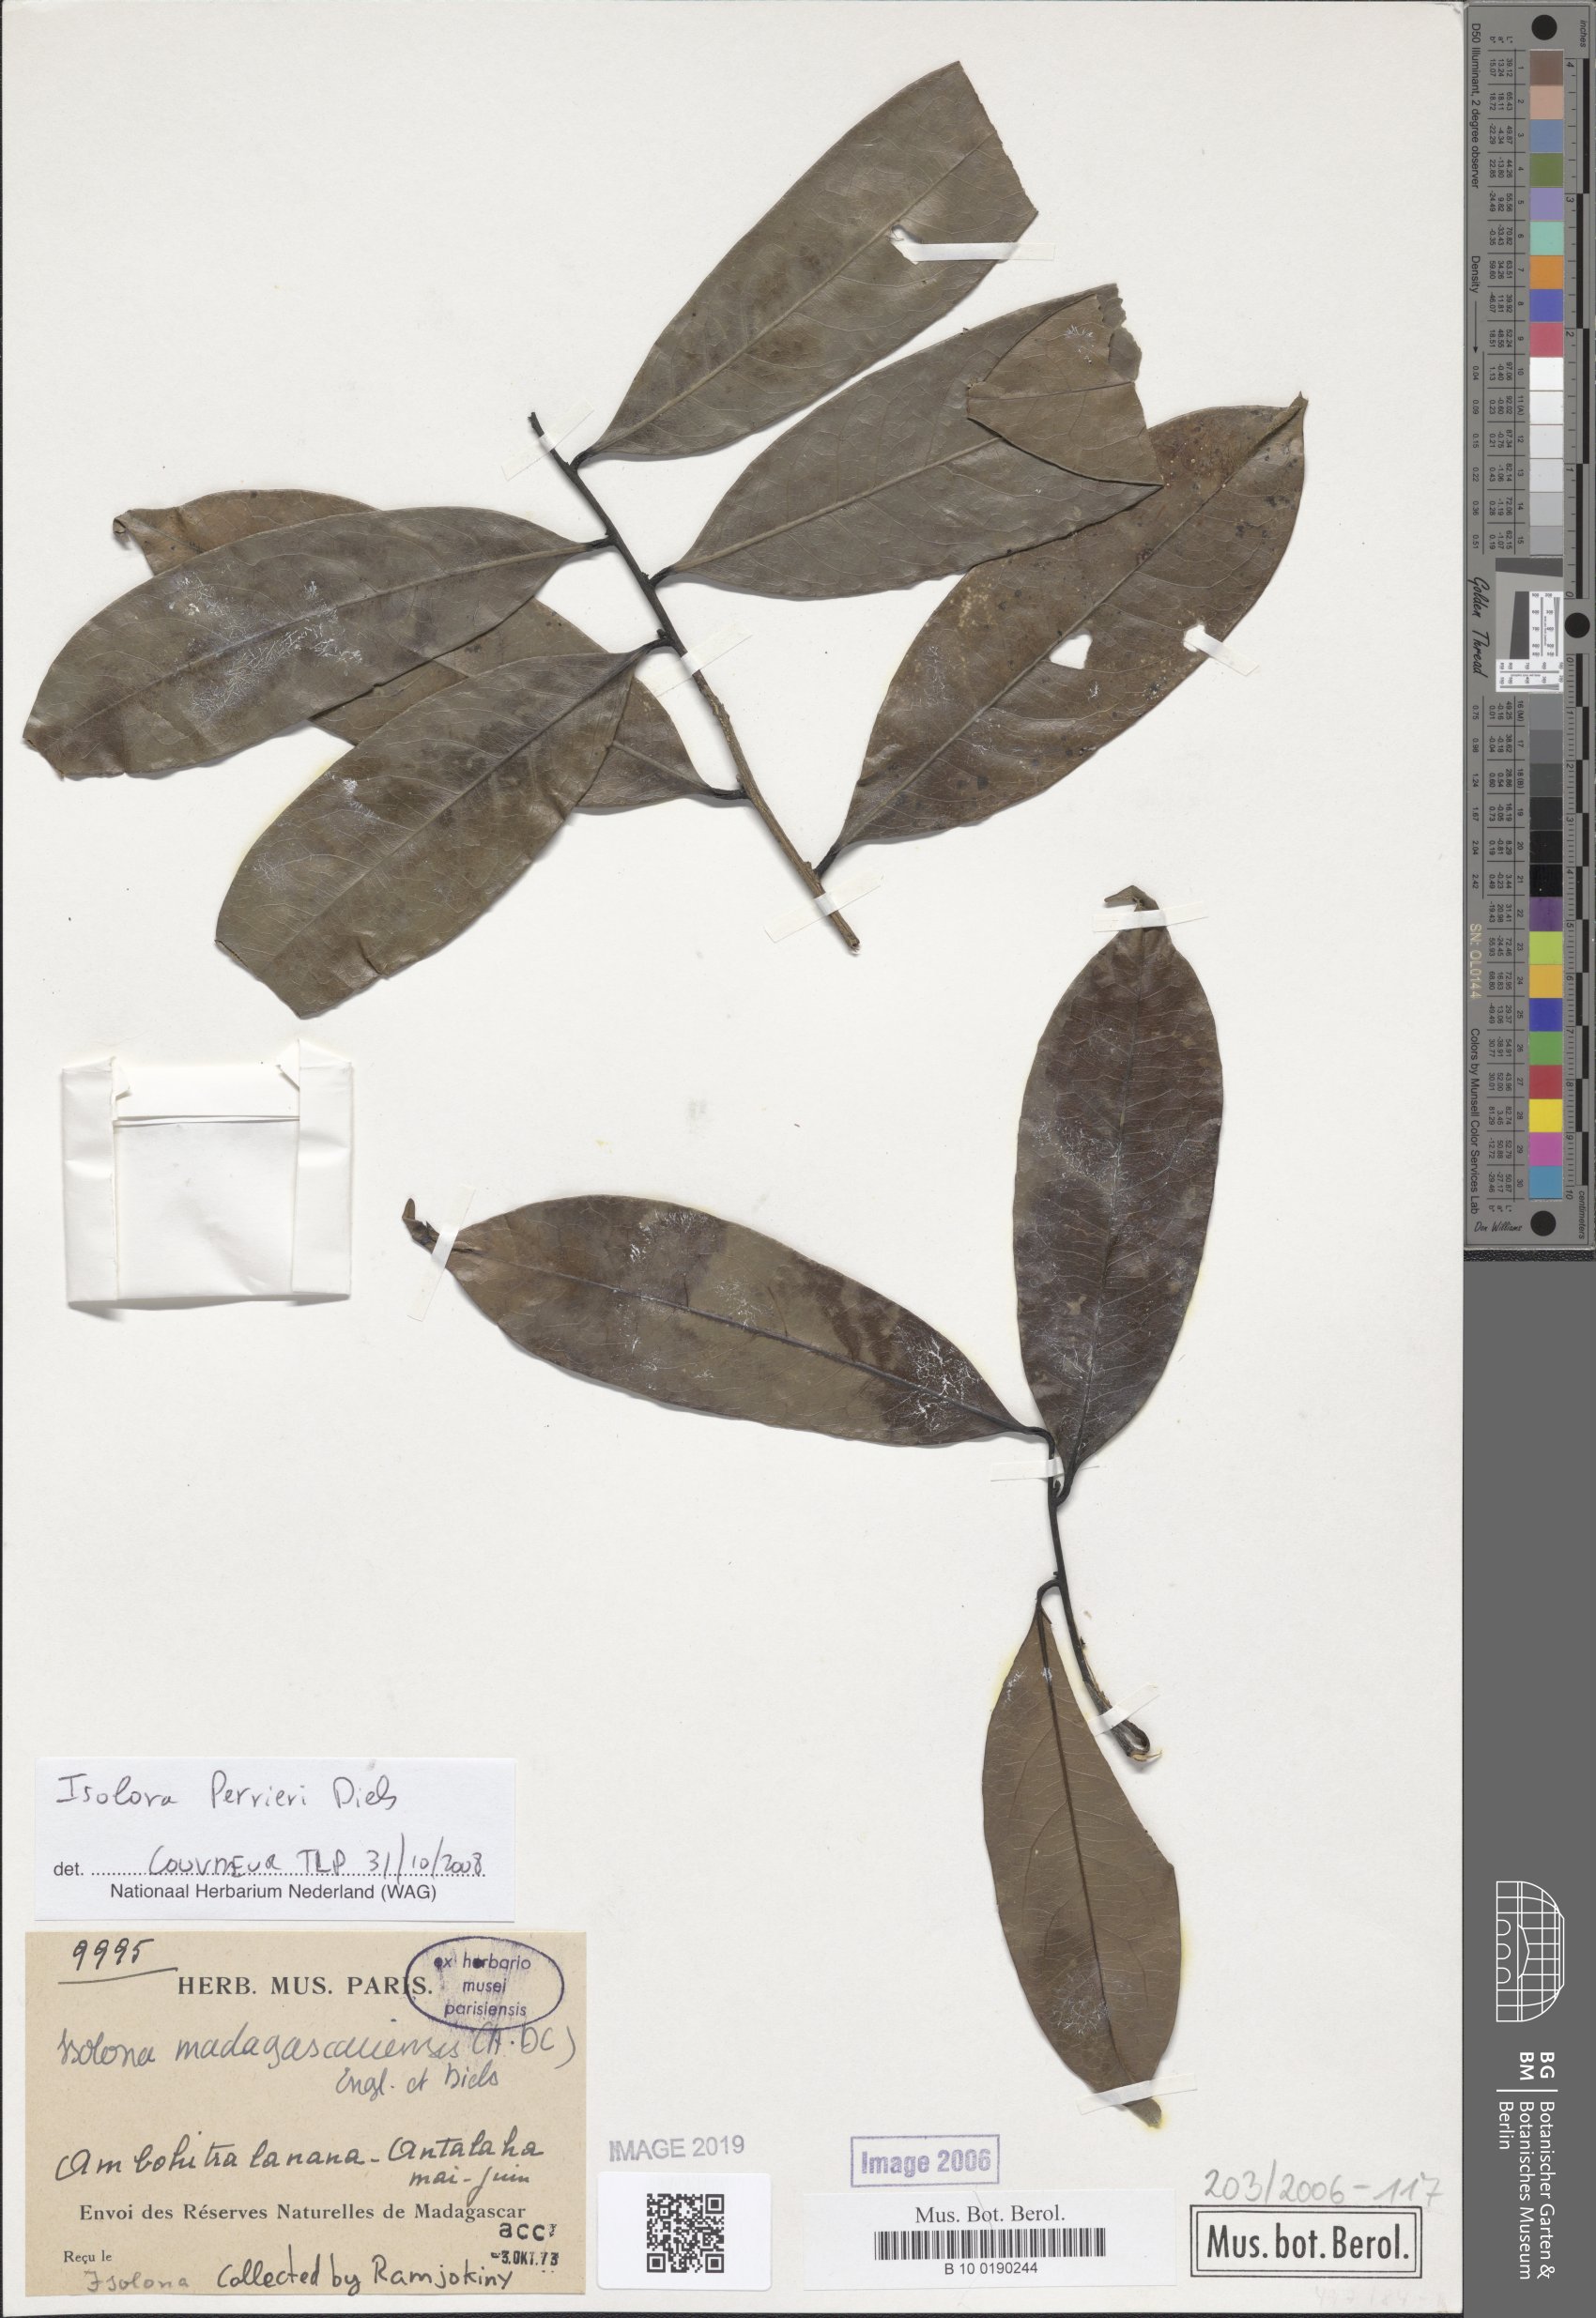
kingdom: Plantae
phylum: Tracheophyta
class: Magnoliopsida
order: Magnoliales
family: Annonaceae
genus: Isolona
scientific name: Isolona madagascariensis
